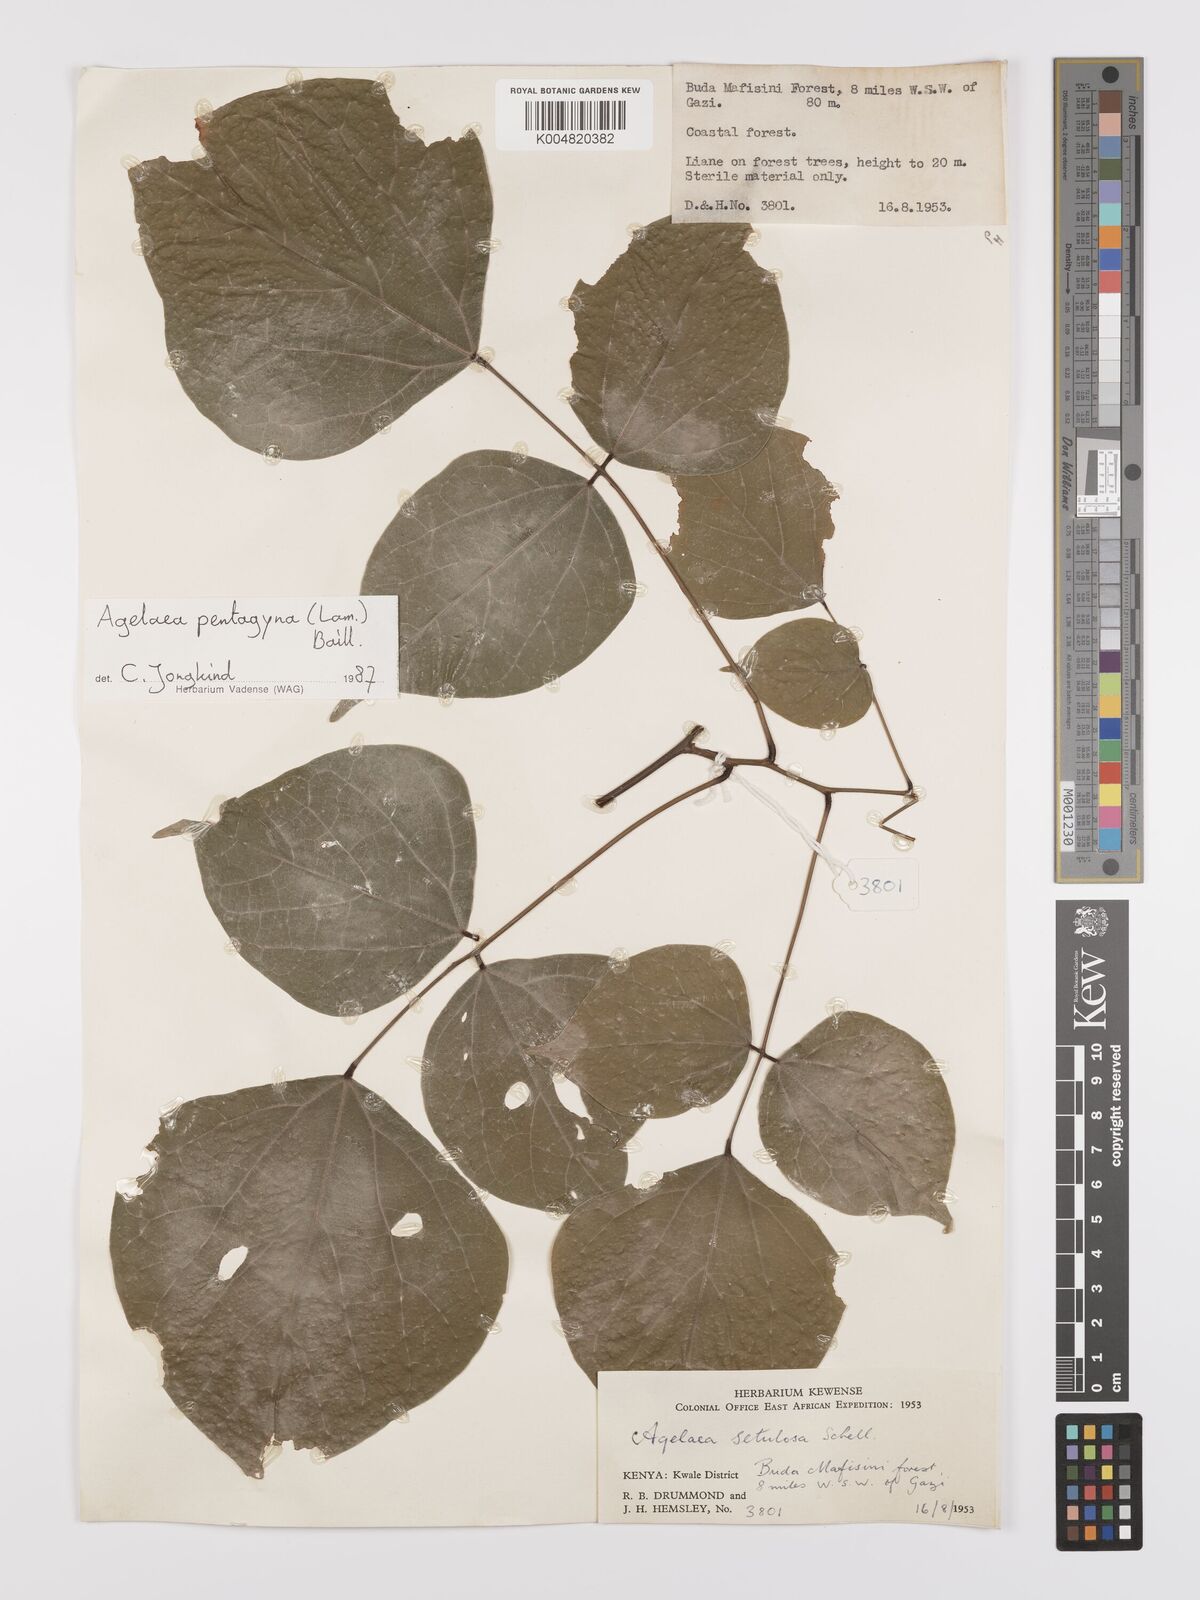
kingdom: Plantae
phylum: Tracheophyta
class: Magnoliopsida
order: Oxalidales
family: Connaraceae
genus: Agelaea
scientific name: Agelaea pentagyna
